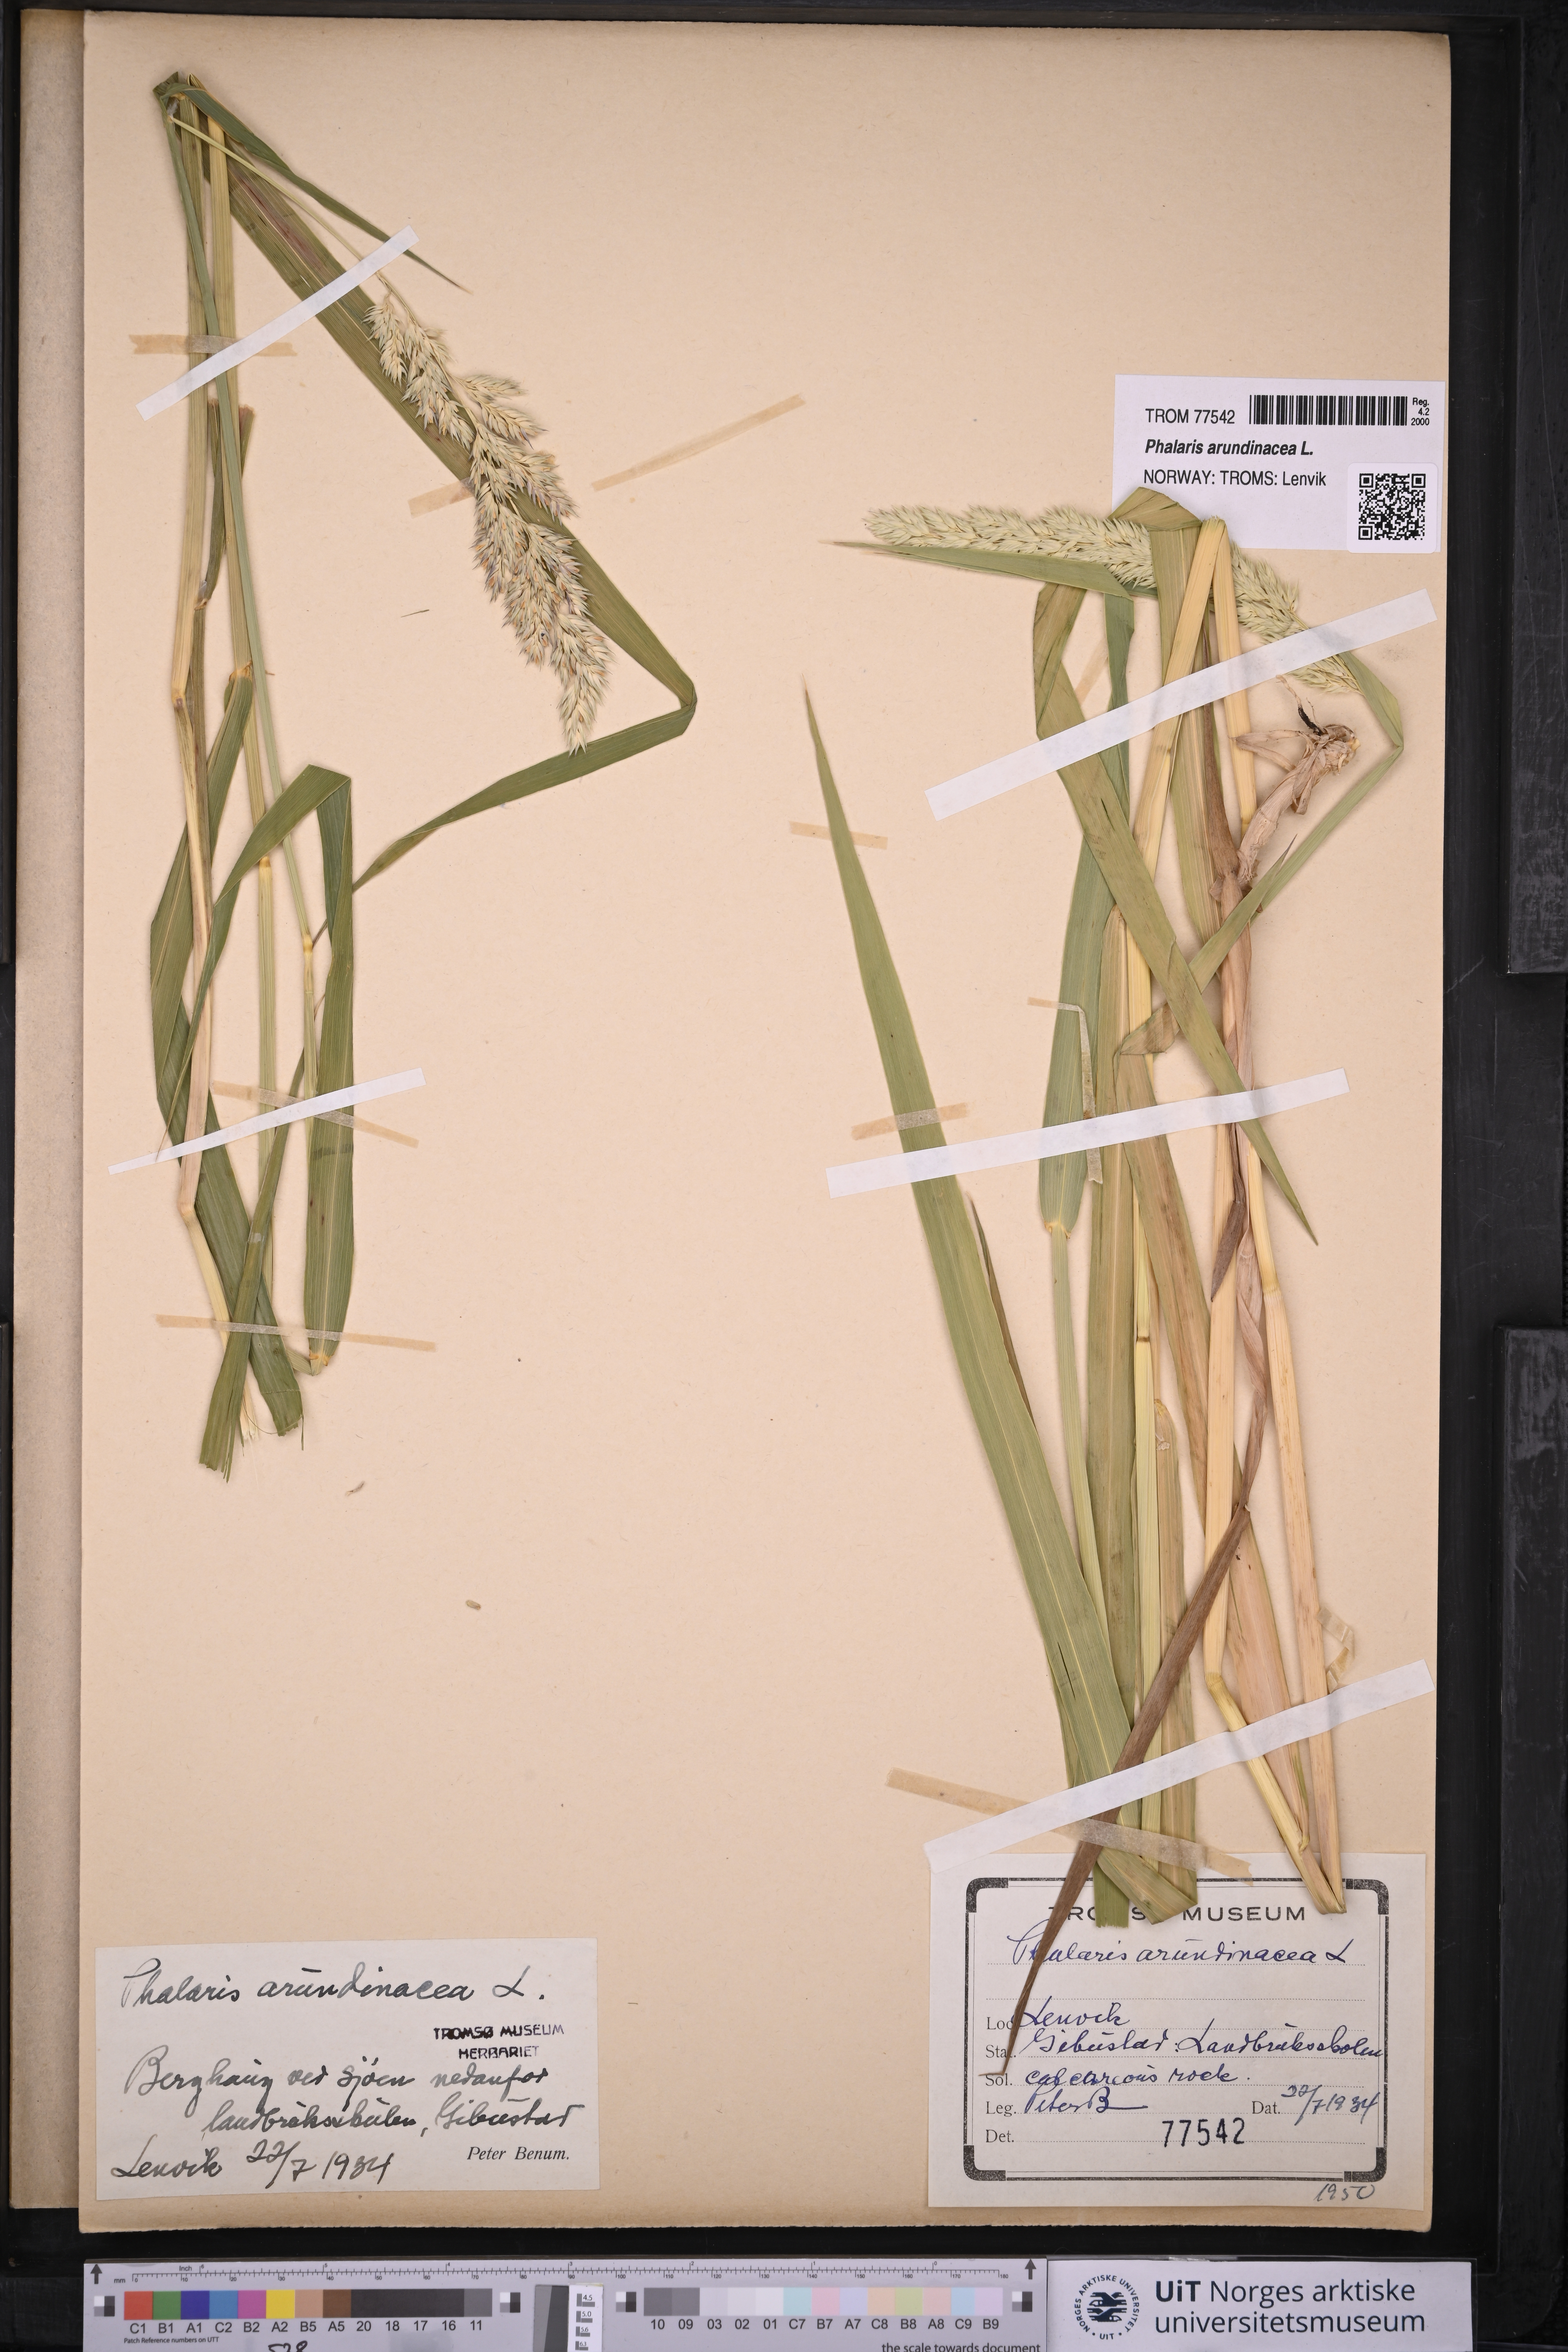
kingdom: Plantae
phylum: Tracheophyta
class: Liliopsida
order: Poales
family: Poaceae
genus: Phalaris
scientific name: Phalaris arundinacea
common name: Reed canary-grass
